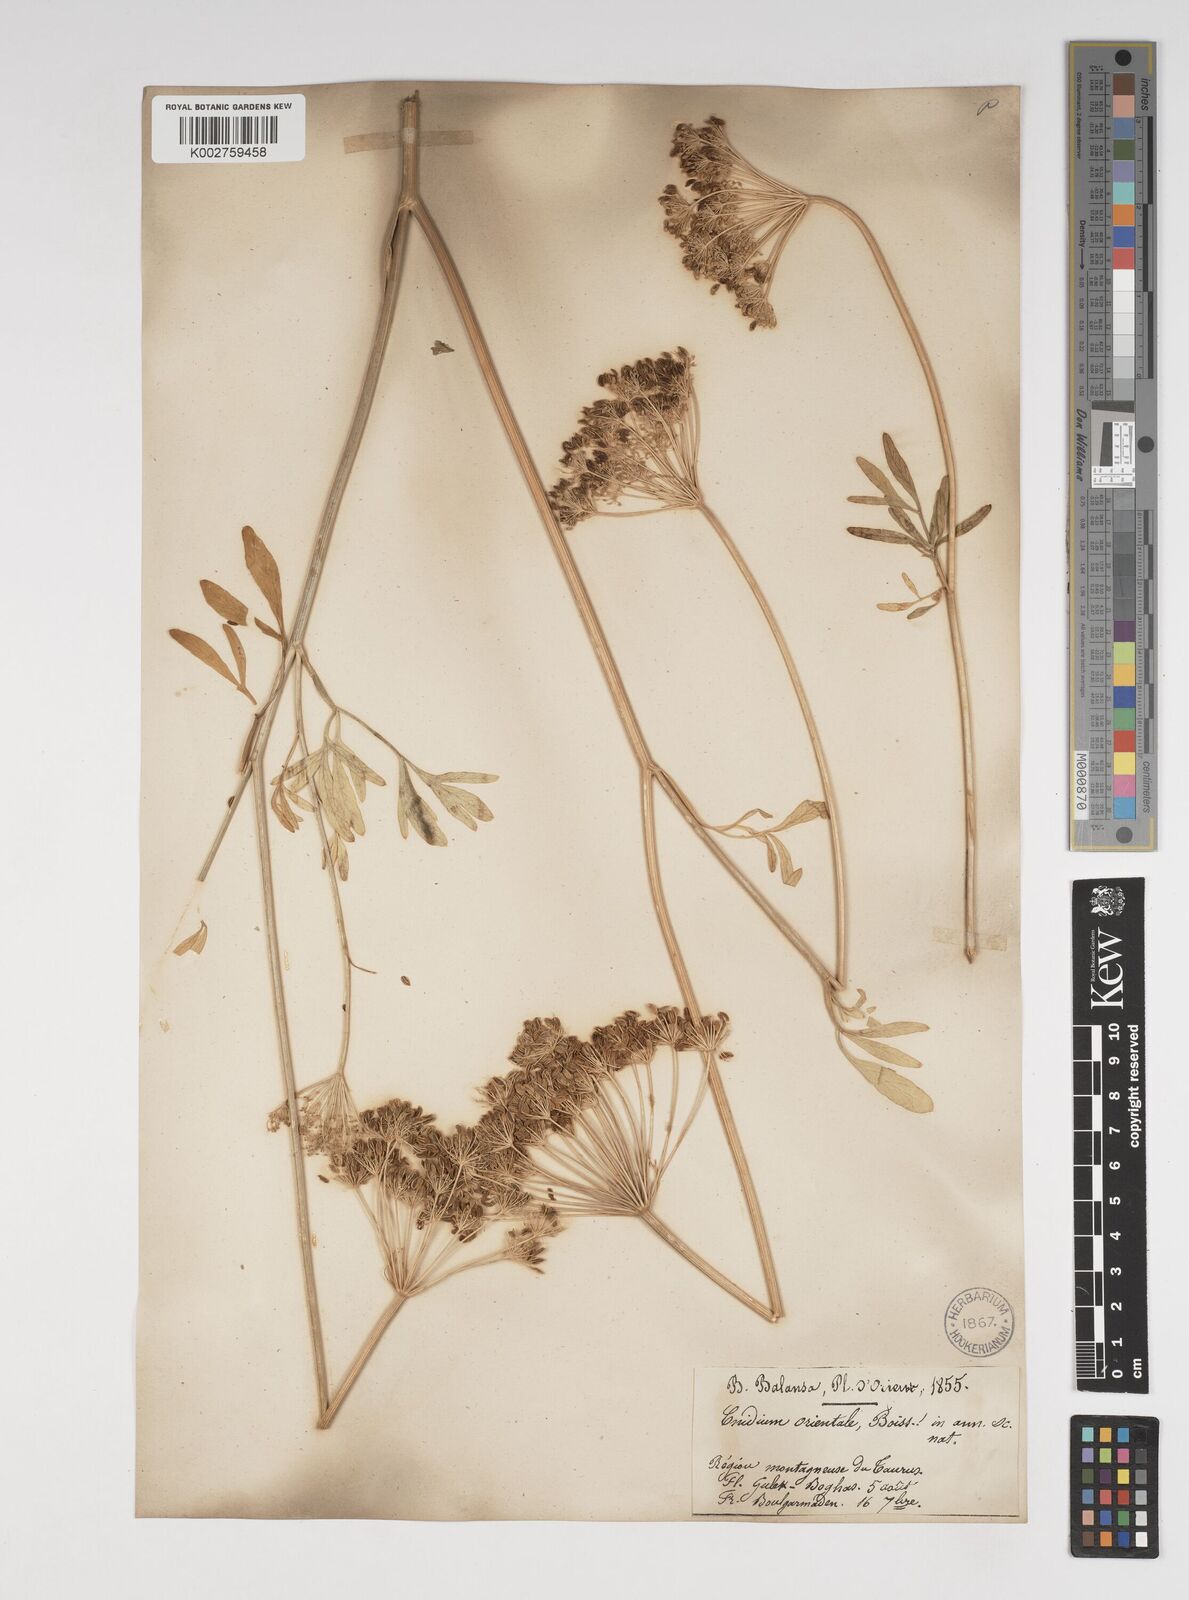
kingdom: Plantae
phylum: Tracheophyta
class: Magnoliopsida
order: Apiales
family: Apiaceae
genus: Katapsuxis
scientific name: Katapsuxis silaifolia
